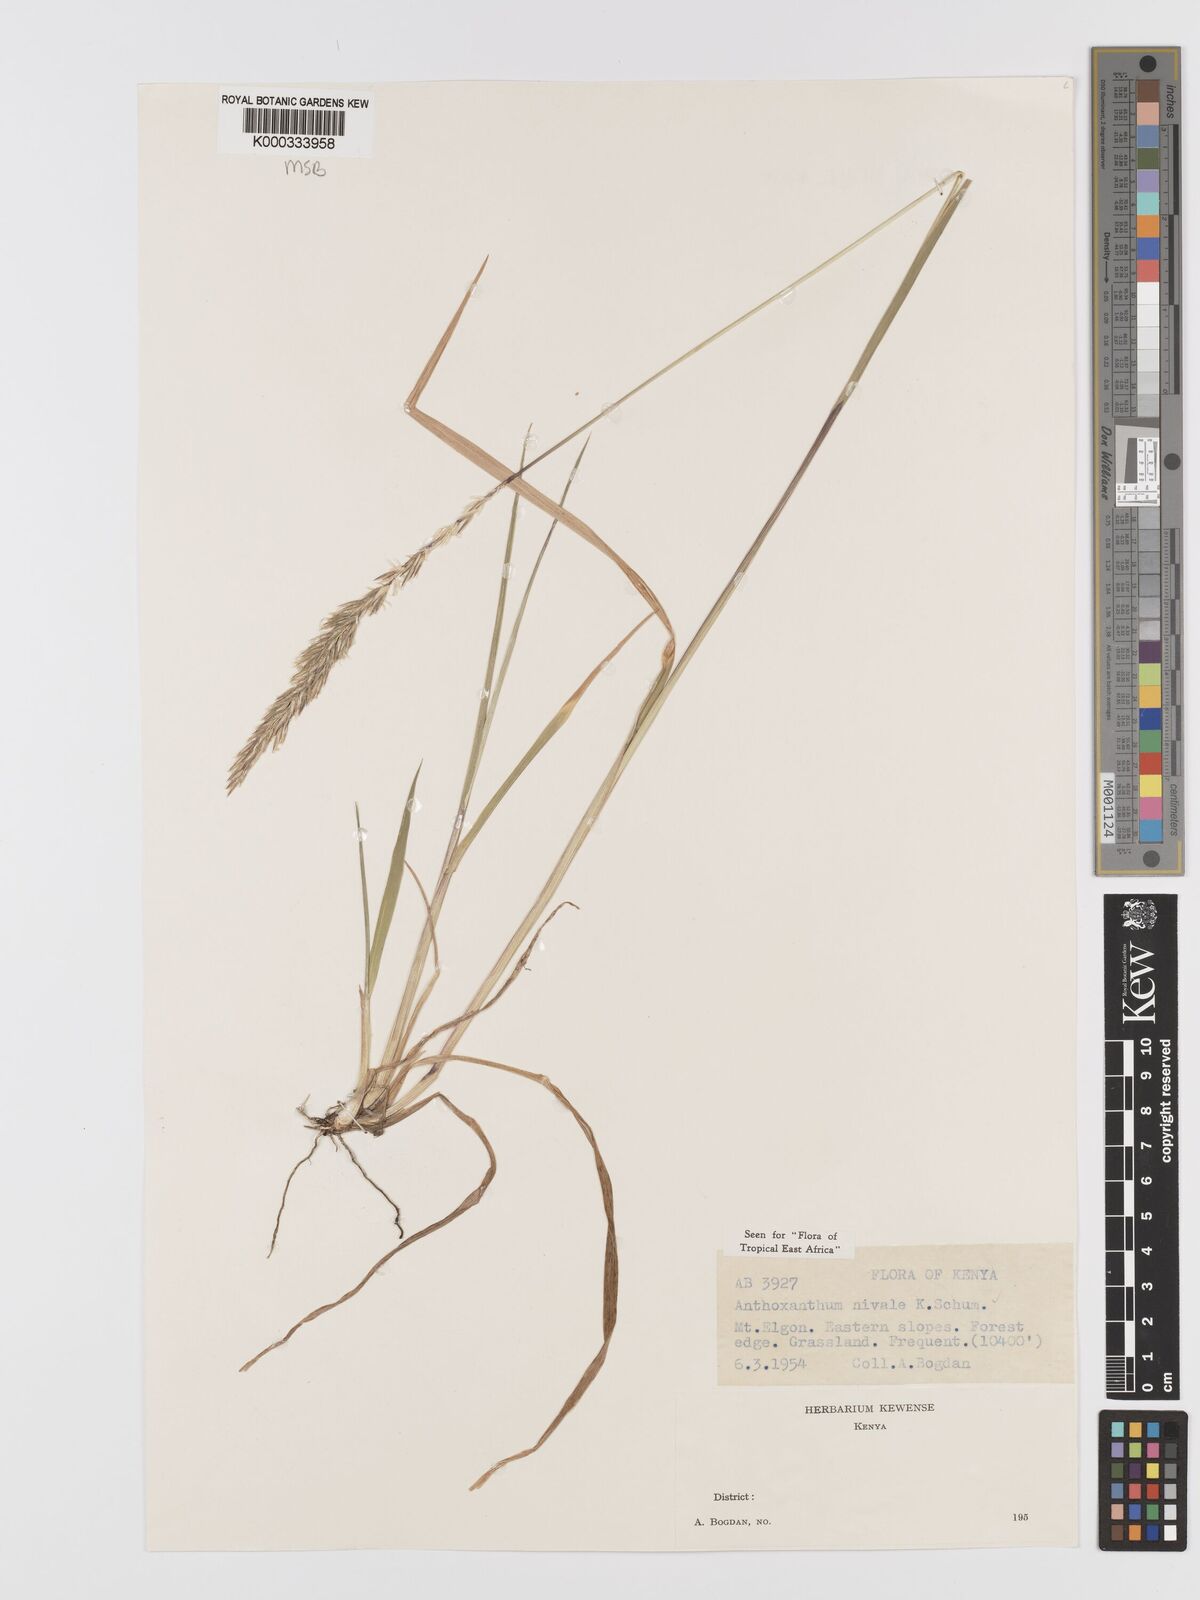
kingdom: Plantae
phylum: Tracheophyta
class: Liliopsida
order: Poales
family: Poaceae
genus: Anthoxanthum
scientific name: Anthoxanthum
